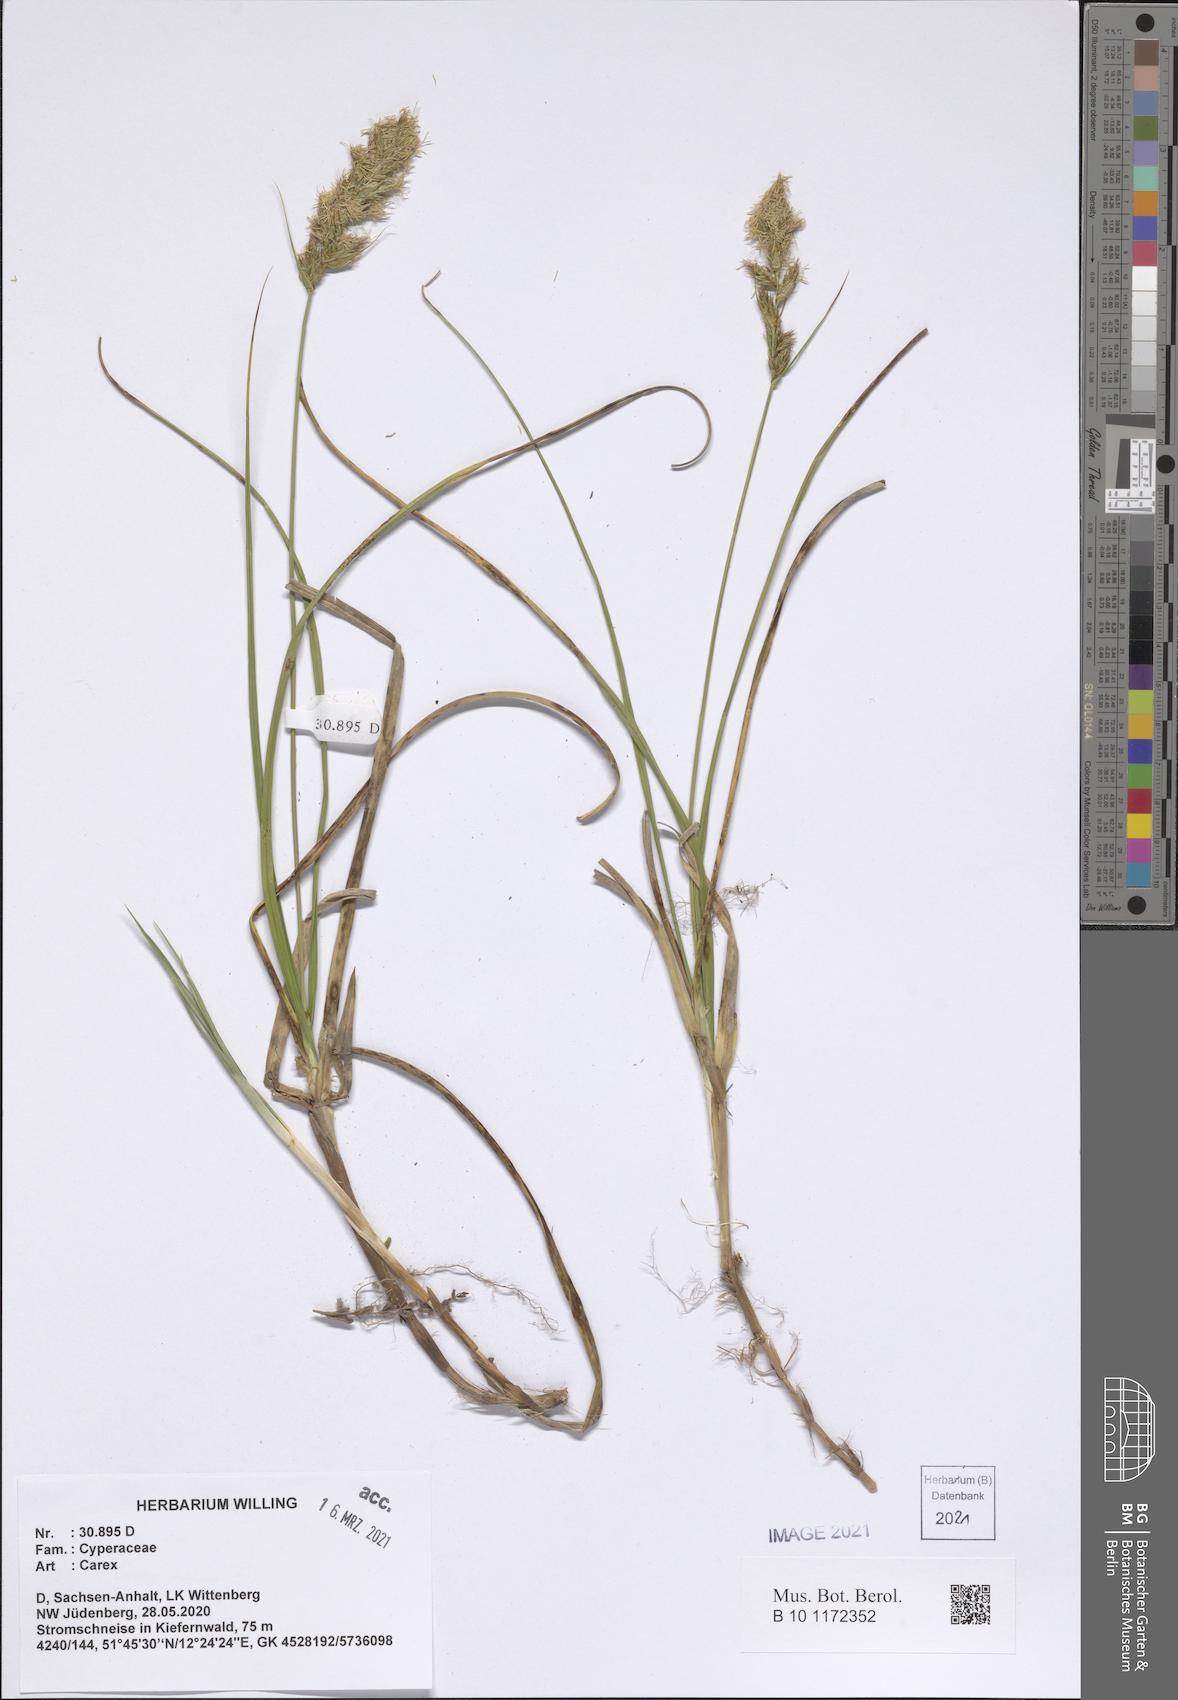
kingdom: Plantae
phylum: Tracheophyta
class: Liliopsida
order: Poales
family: Cyperaceae
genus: Carex
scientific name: Carex
